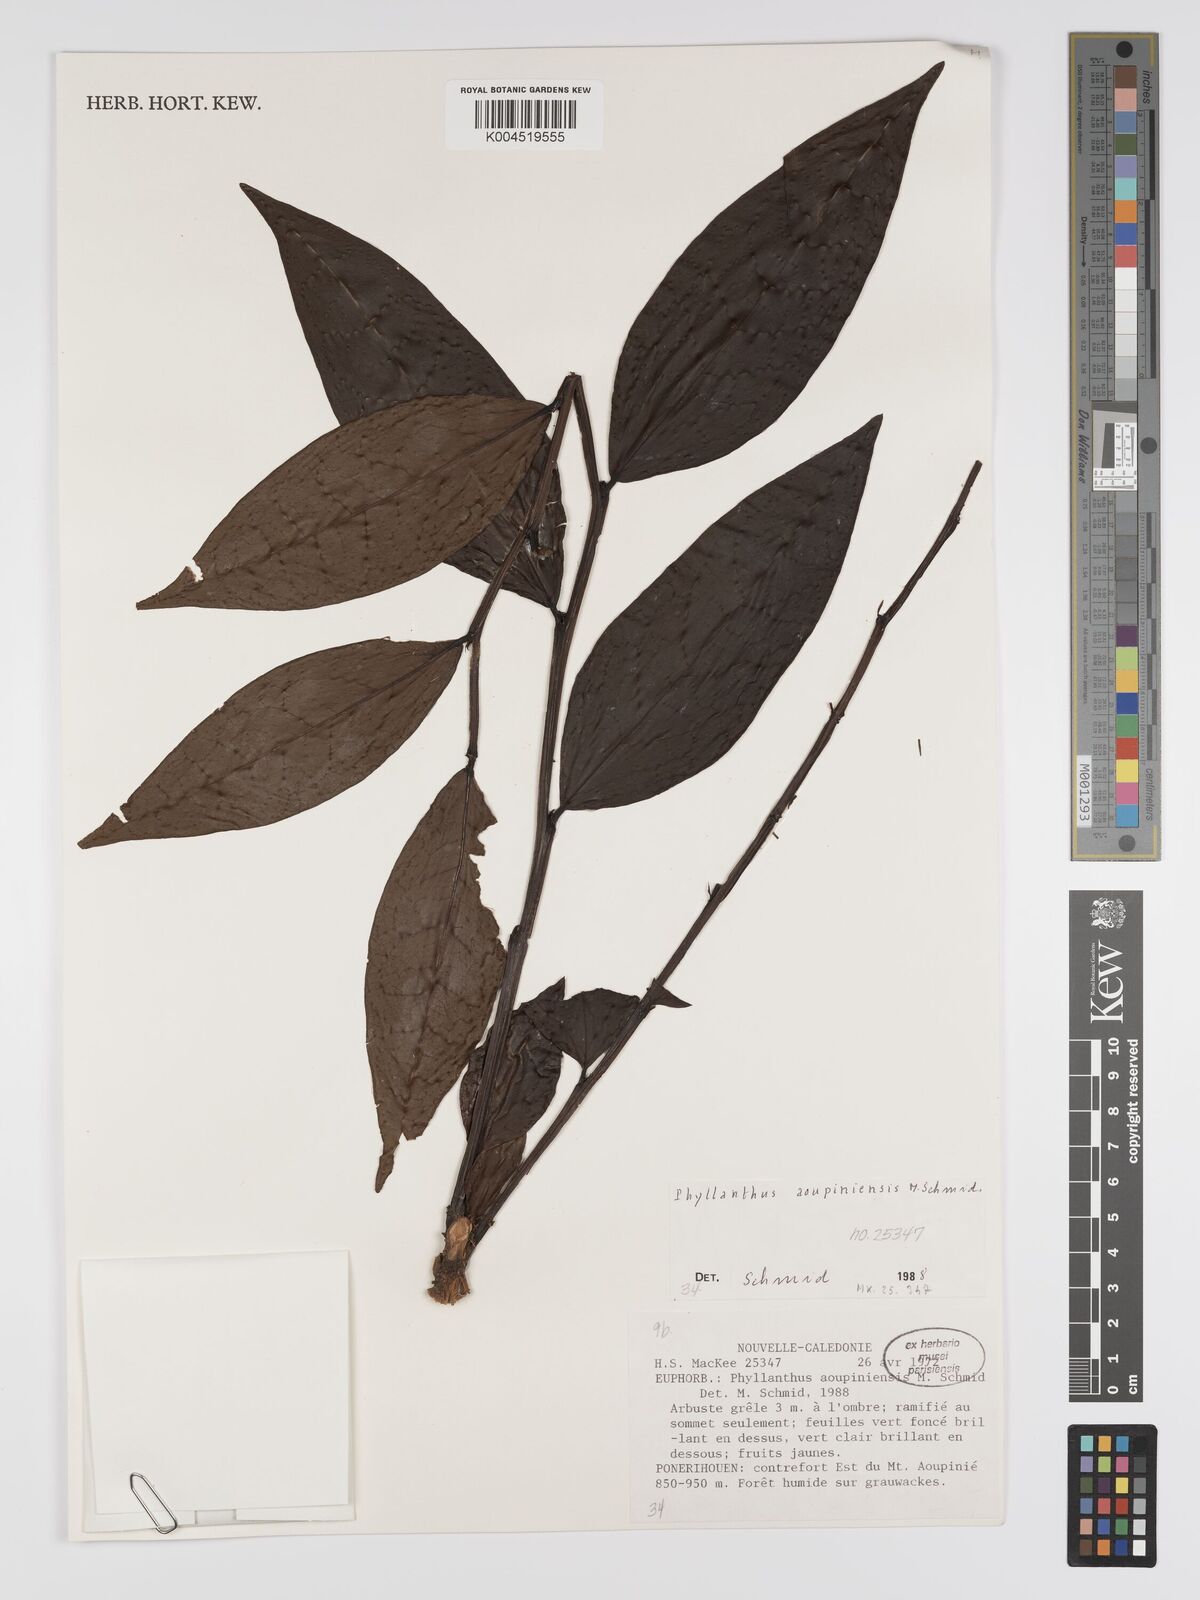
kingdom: Plantae
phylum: Tracheophyta
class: Magnoliopsida
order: Malpighiales
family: Phyllanthaceae
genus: Phyllanthus
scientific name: Phyllanthus aoupinieensis
